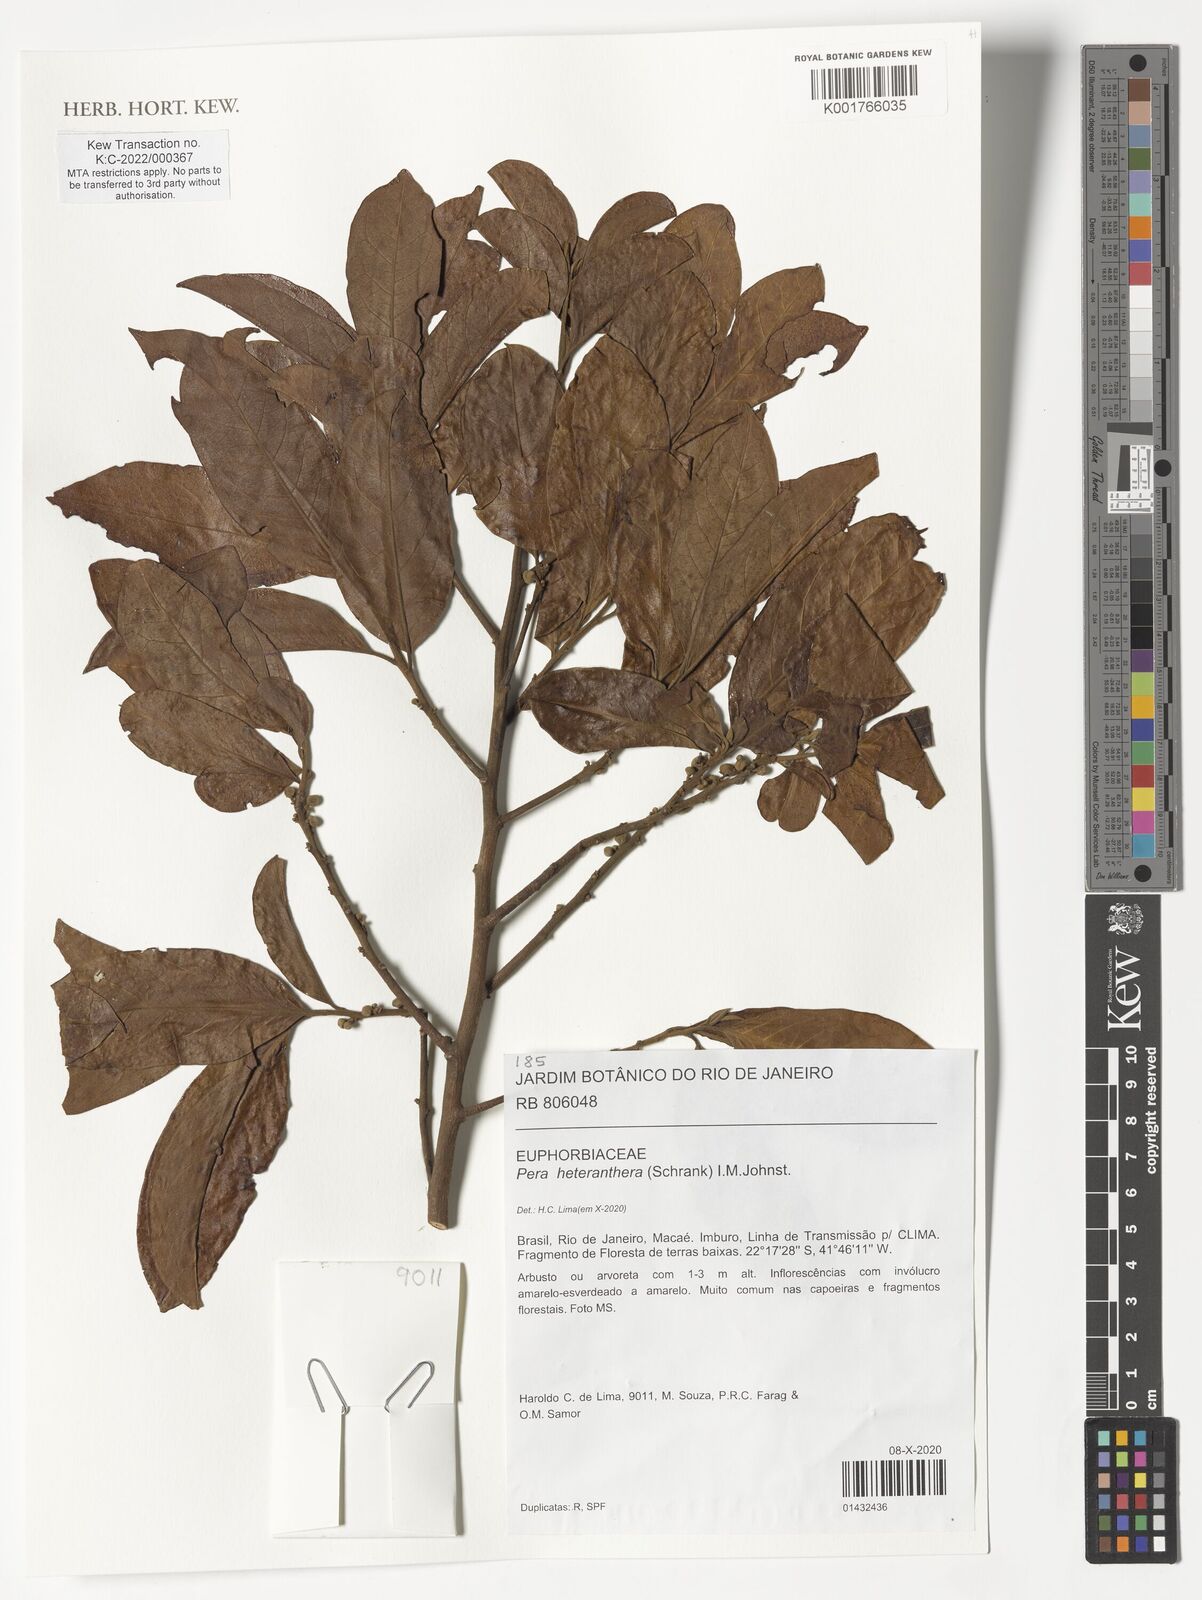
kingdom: Plantae
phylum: Tracheophyta
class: Magnoliopsida
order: Malpighiales
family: Peraceae
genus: Pera
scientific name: Pera heteranthera
